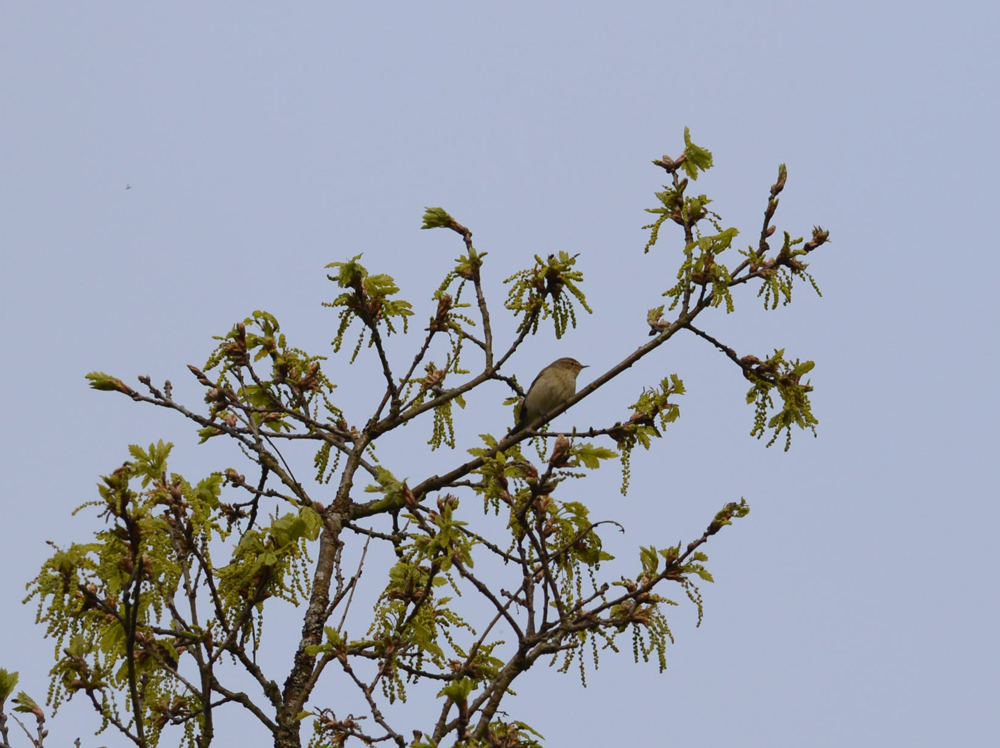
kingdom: Animalia
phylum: Chordata
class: Aves
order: Passeriformes
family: Phylloscopidae
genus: Phylloscopus
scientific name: Phylloscopus collybita
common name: Common chiffchaff
